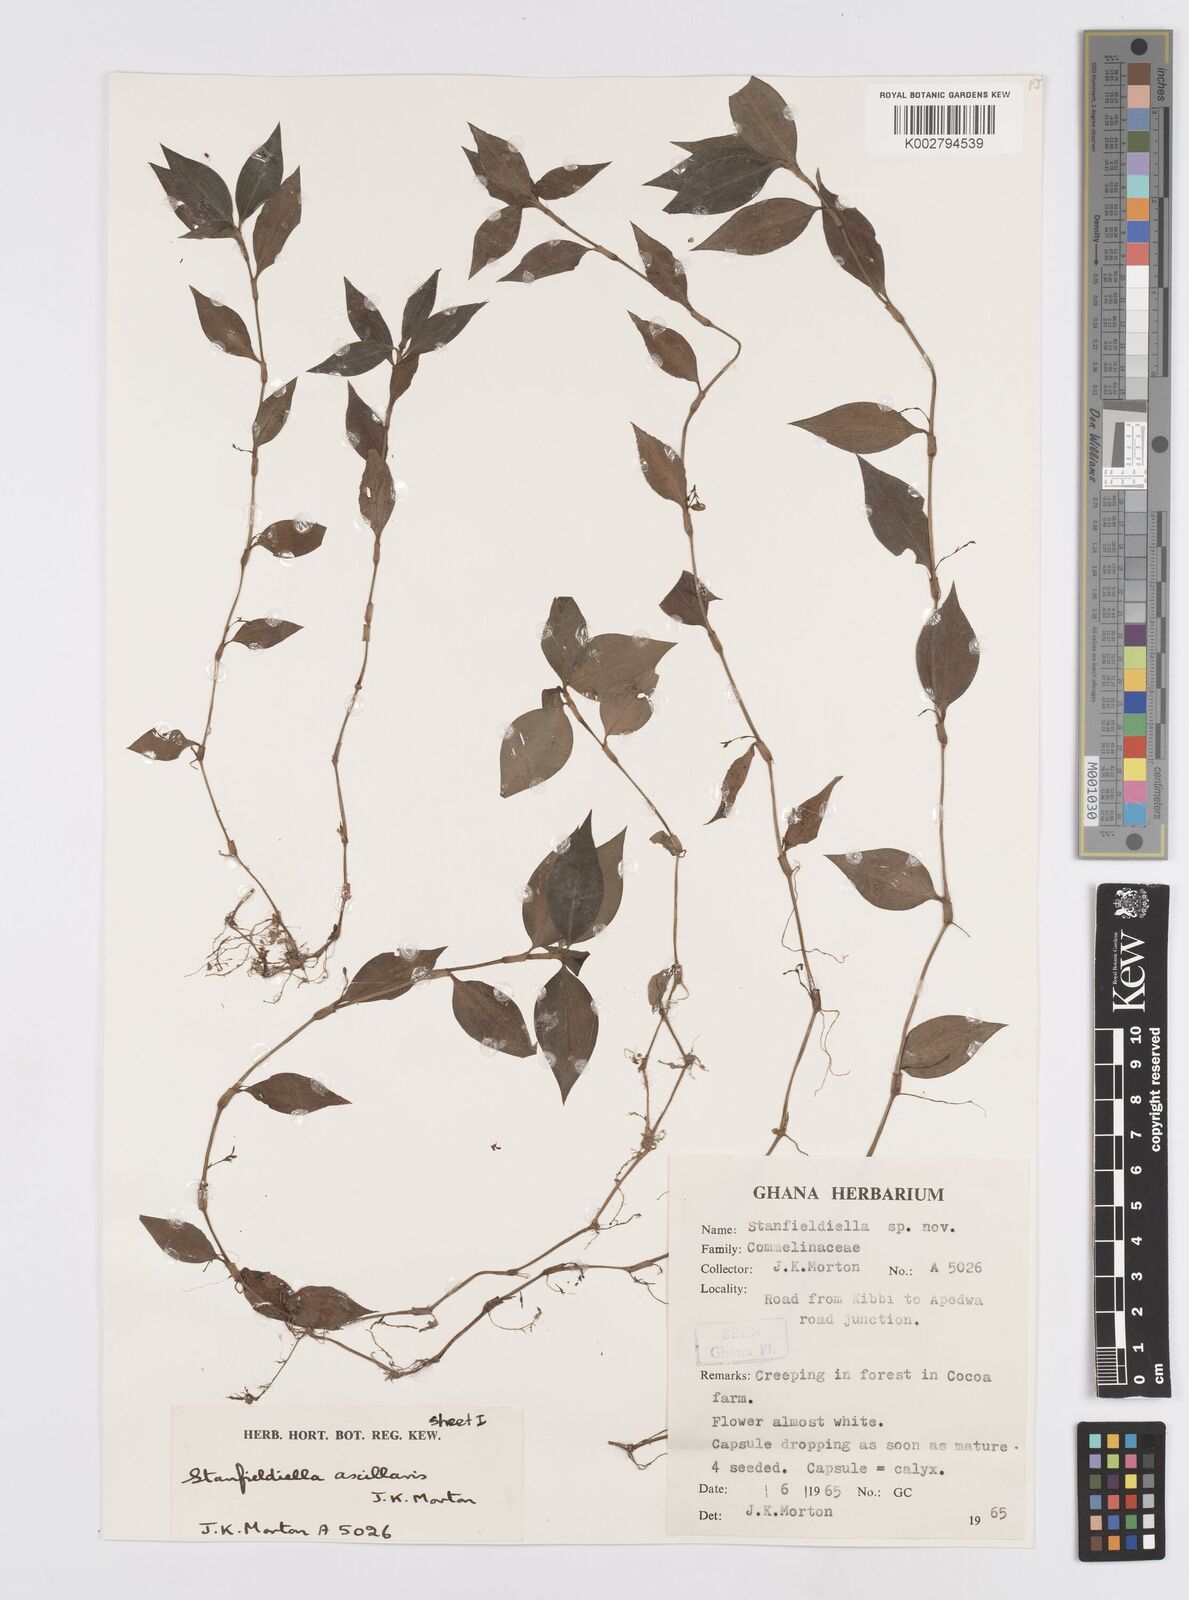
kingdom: Plantae
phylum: Tracheophyta
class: Liliopsida
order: Commelinales
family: Commelinaceae
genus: Stanfieldiella
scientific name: Stanfieldiella axillaris
